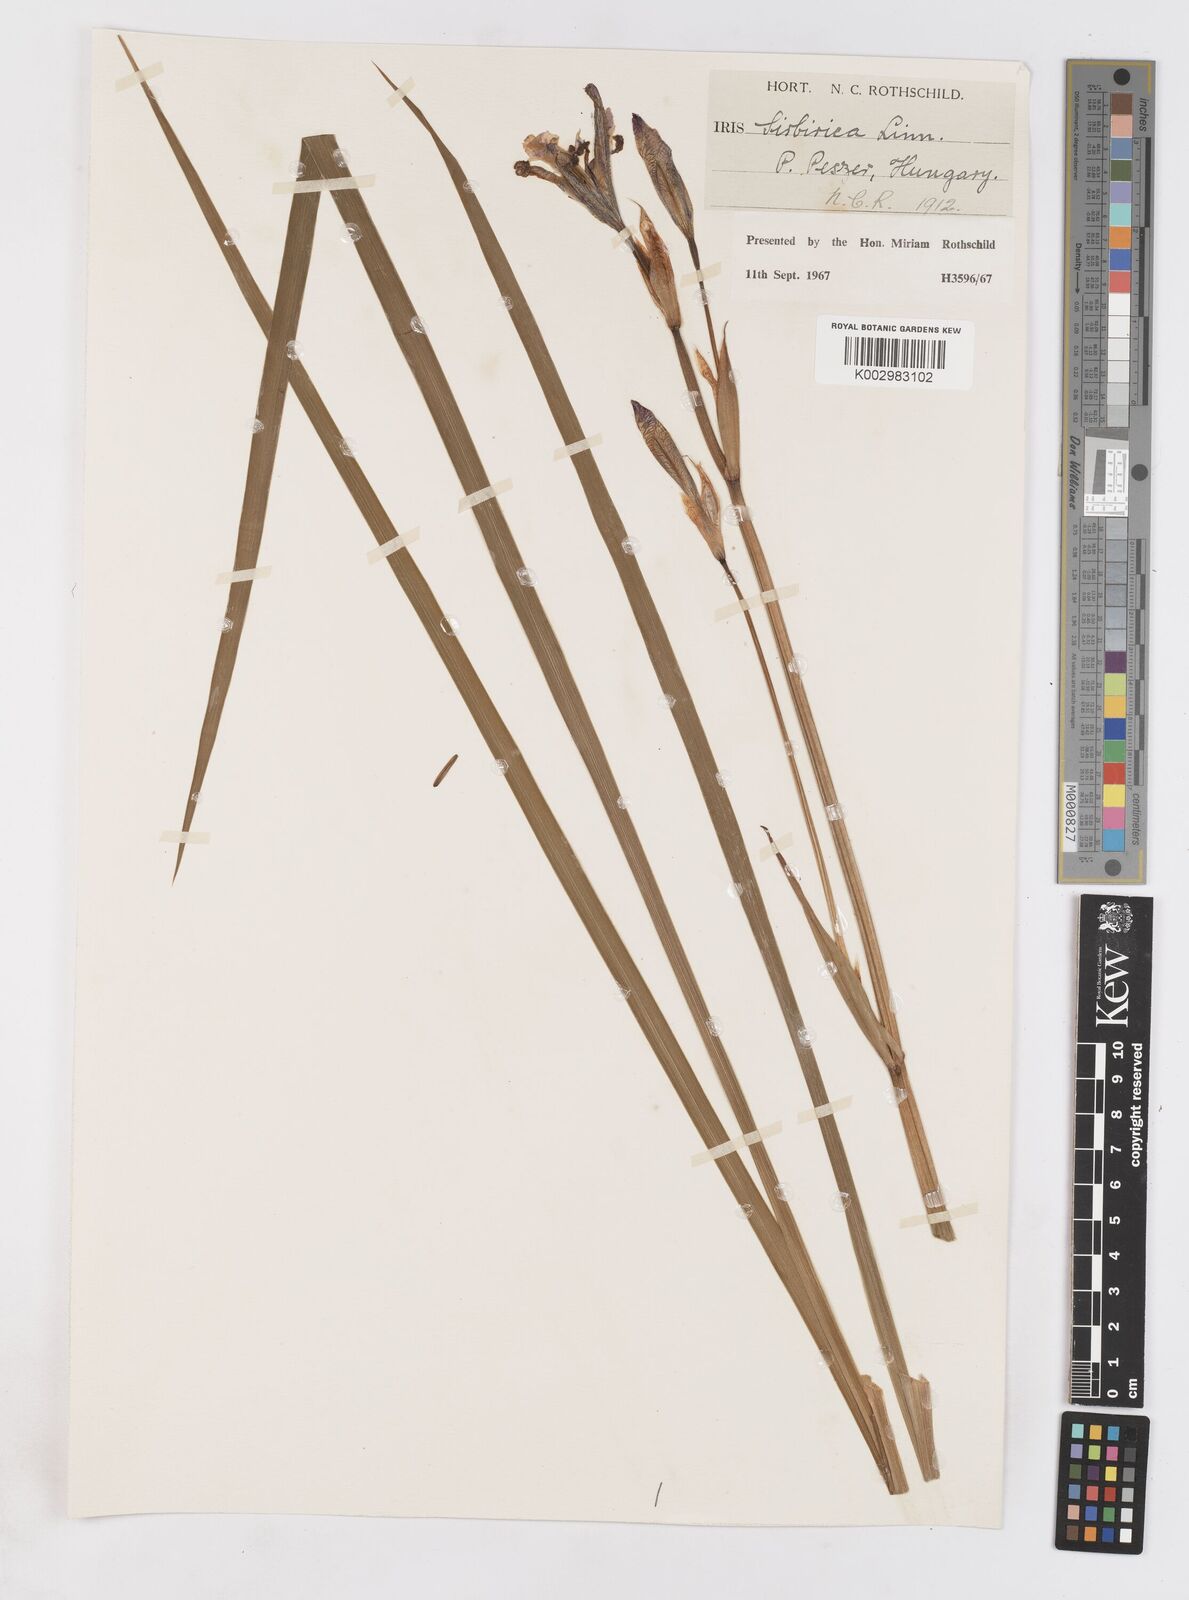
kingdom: Plantae
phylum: Tracheophyta
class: Liliopsida
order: Asparagales
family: Iridaceae
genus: Iris
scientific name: Iris sibirica
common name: Siberian iris
